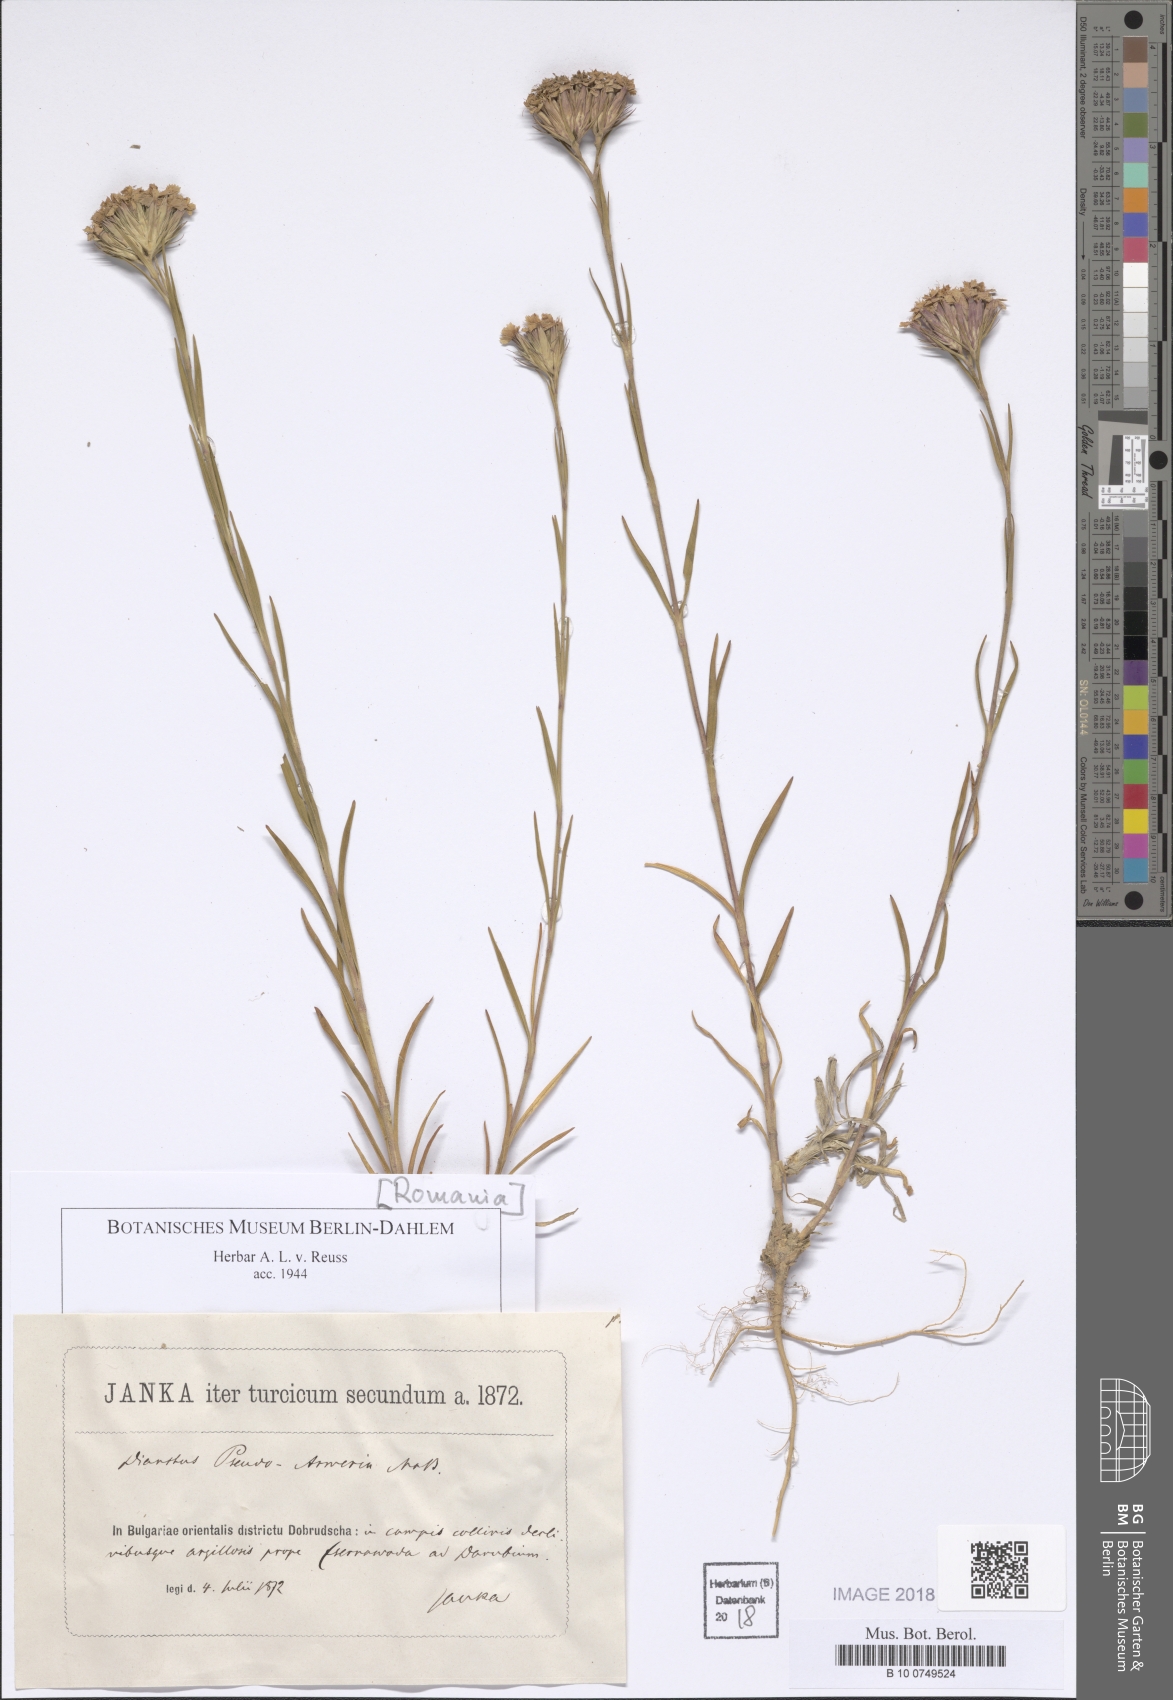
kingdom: Plantae
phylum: Tracheophyta
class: Magnoliopsida
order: Caryophyllales
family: Caryophyllaceae
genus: Dianthus
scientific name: Dianthus pseud-armeria
